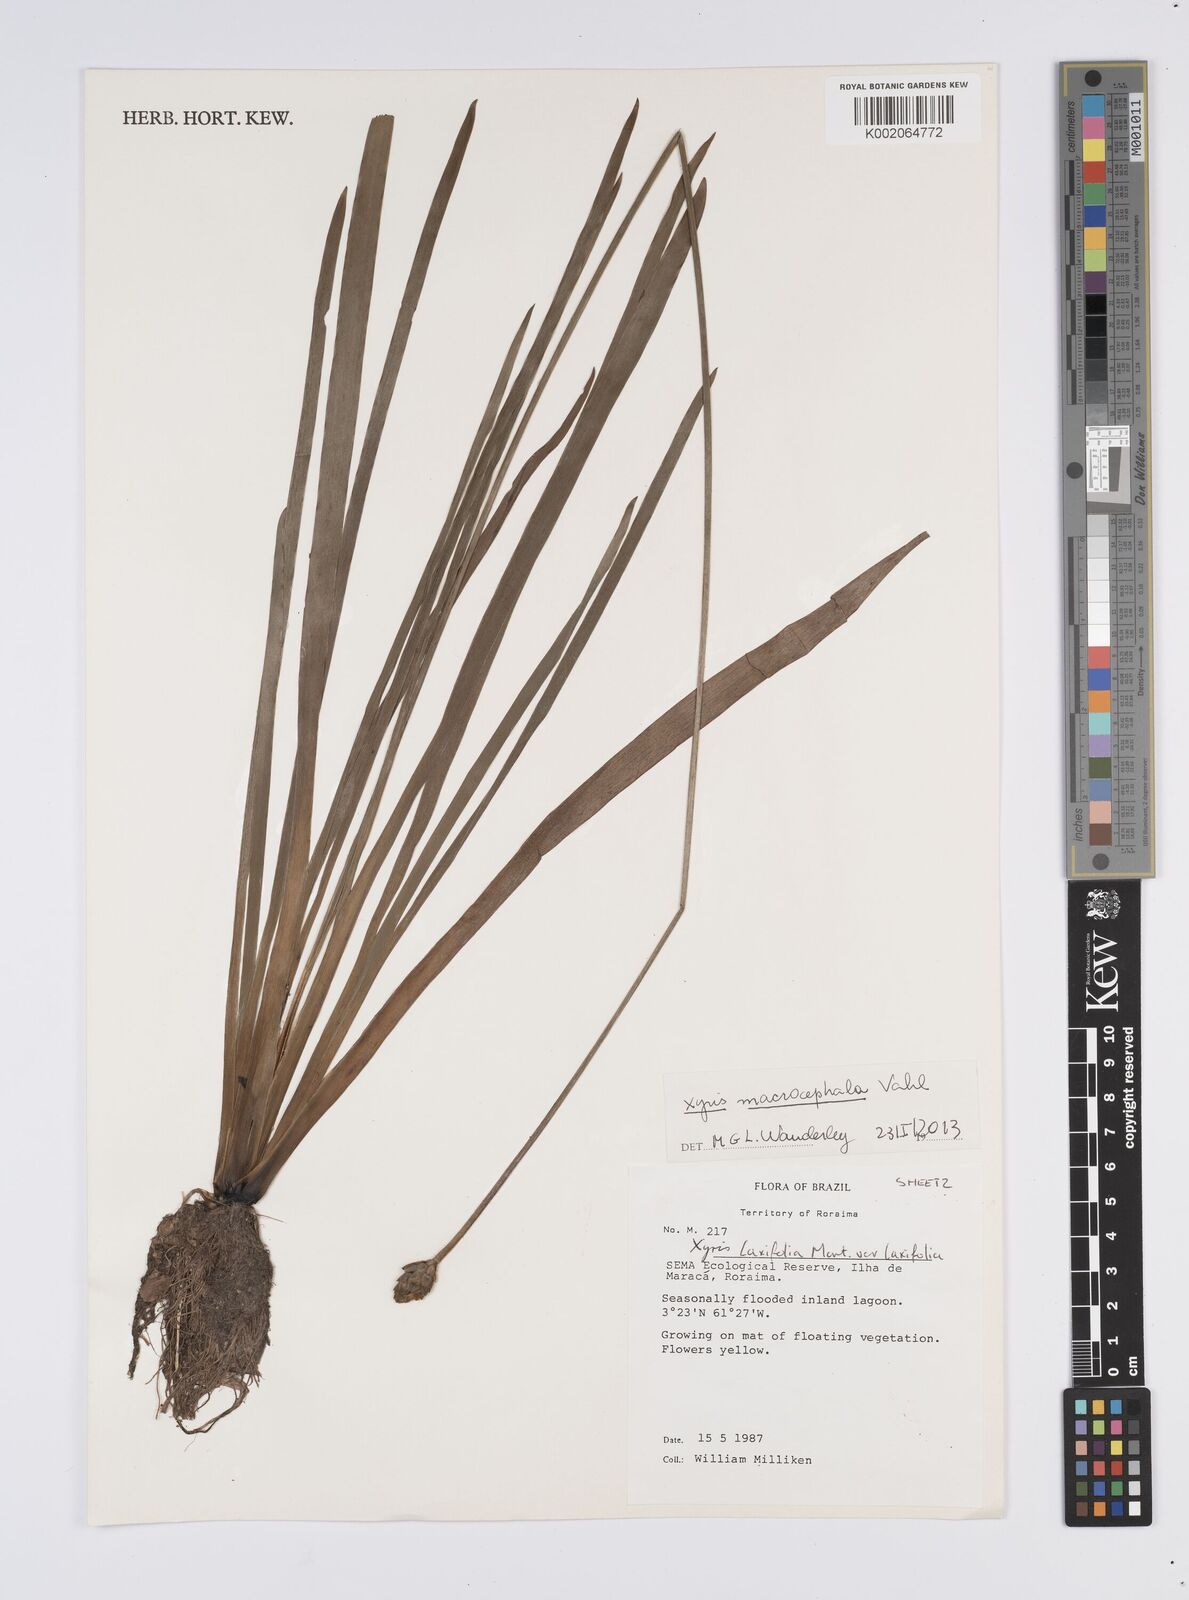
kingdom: Plantae
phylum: Tracheophyta
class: Liliopsida
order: Poales
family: Xyridaceae
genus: Xyris
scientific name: Xyris jupicai
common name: Richard's yelloweyed grass
